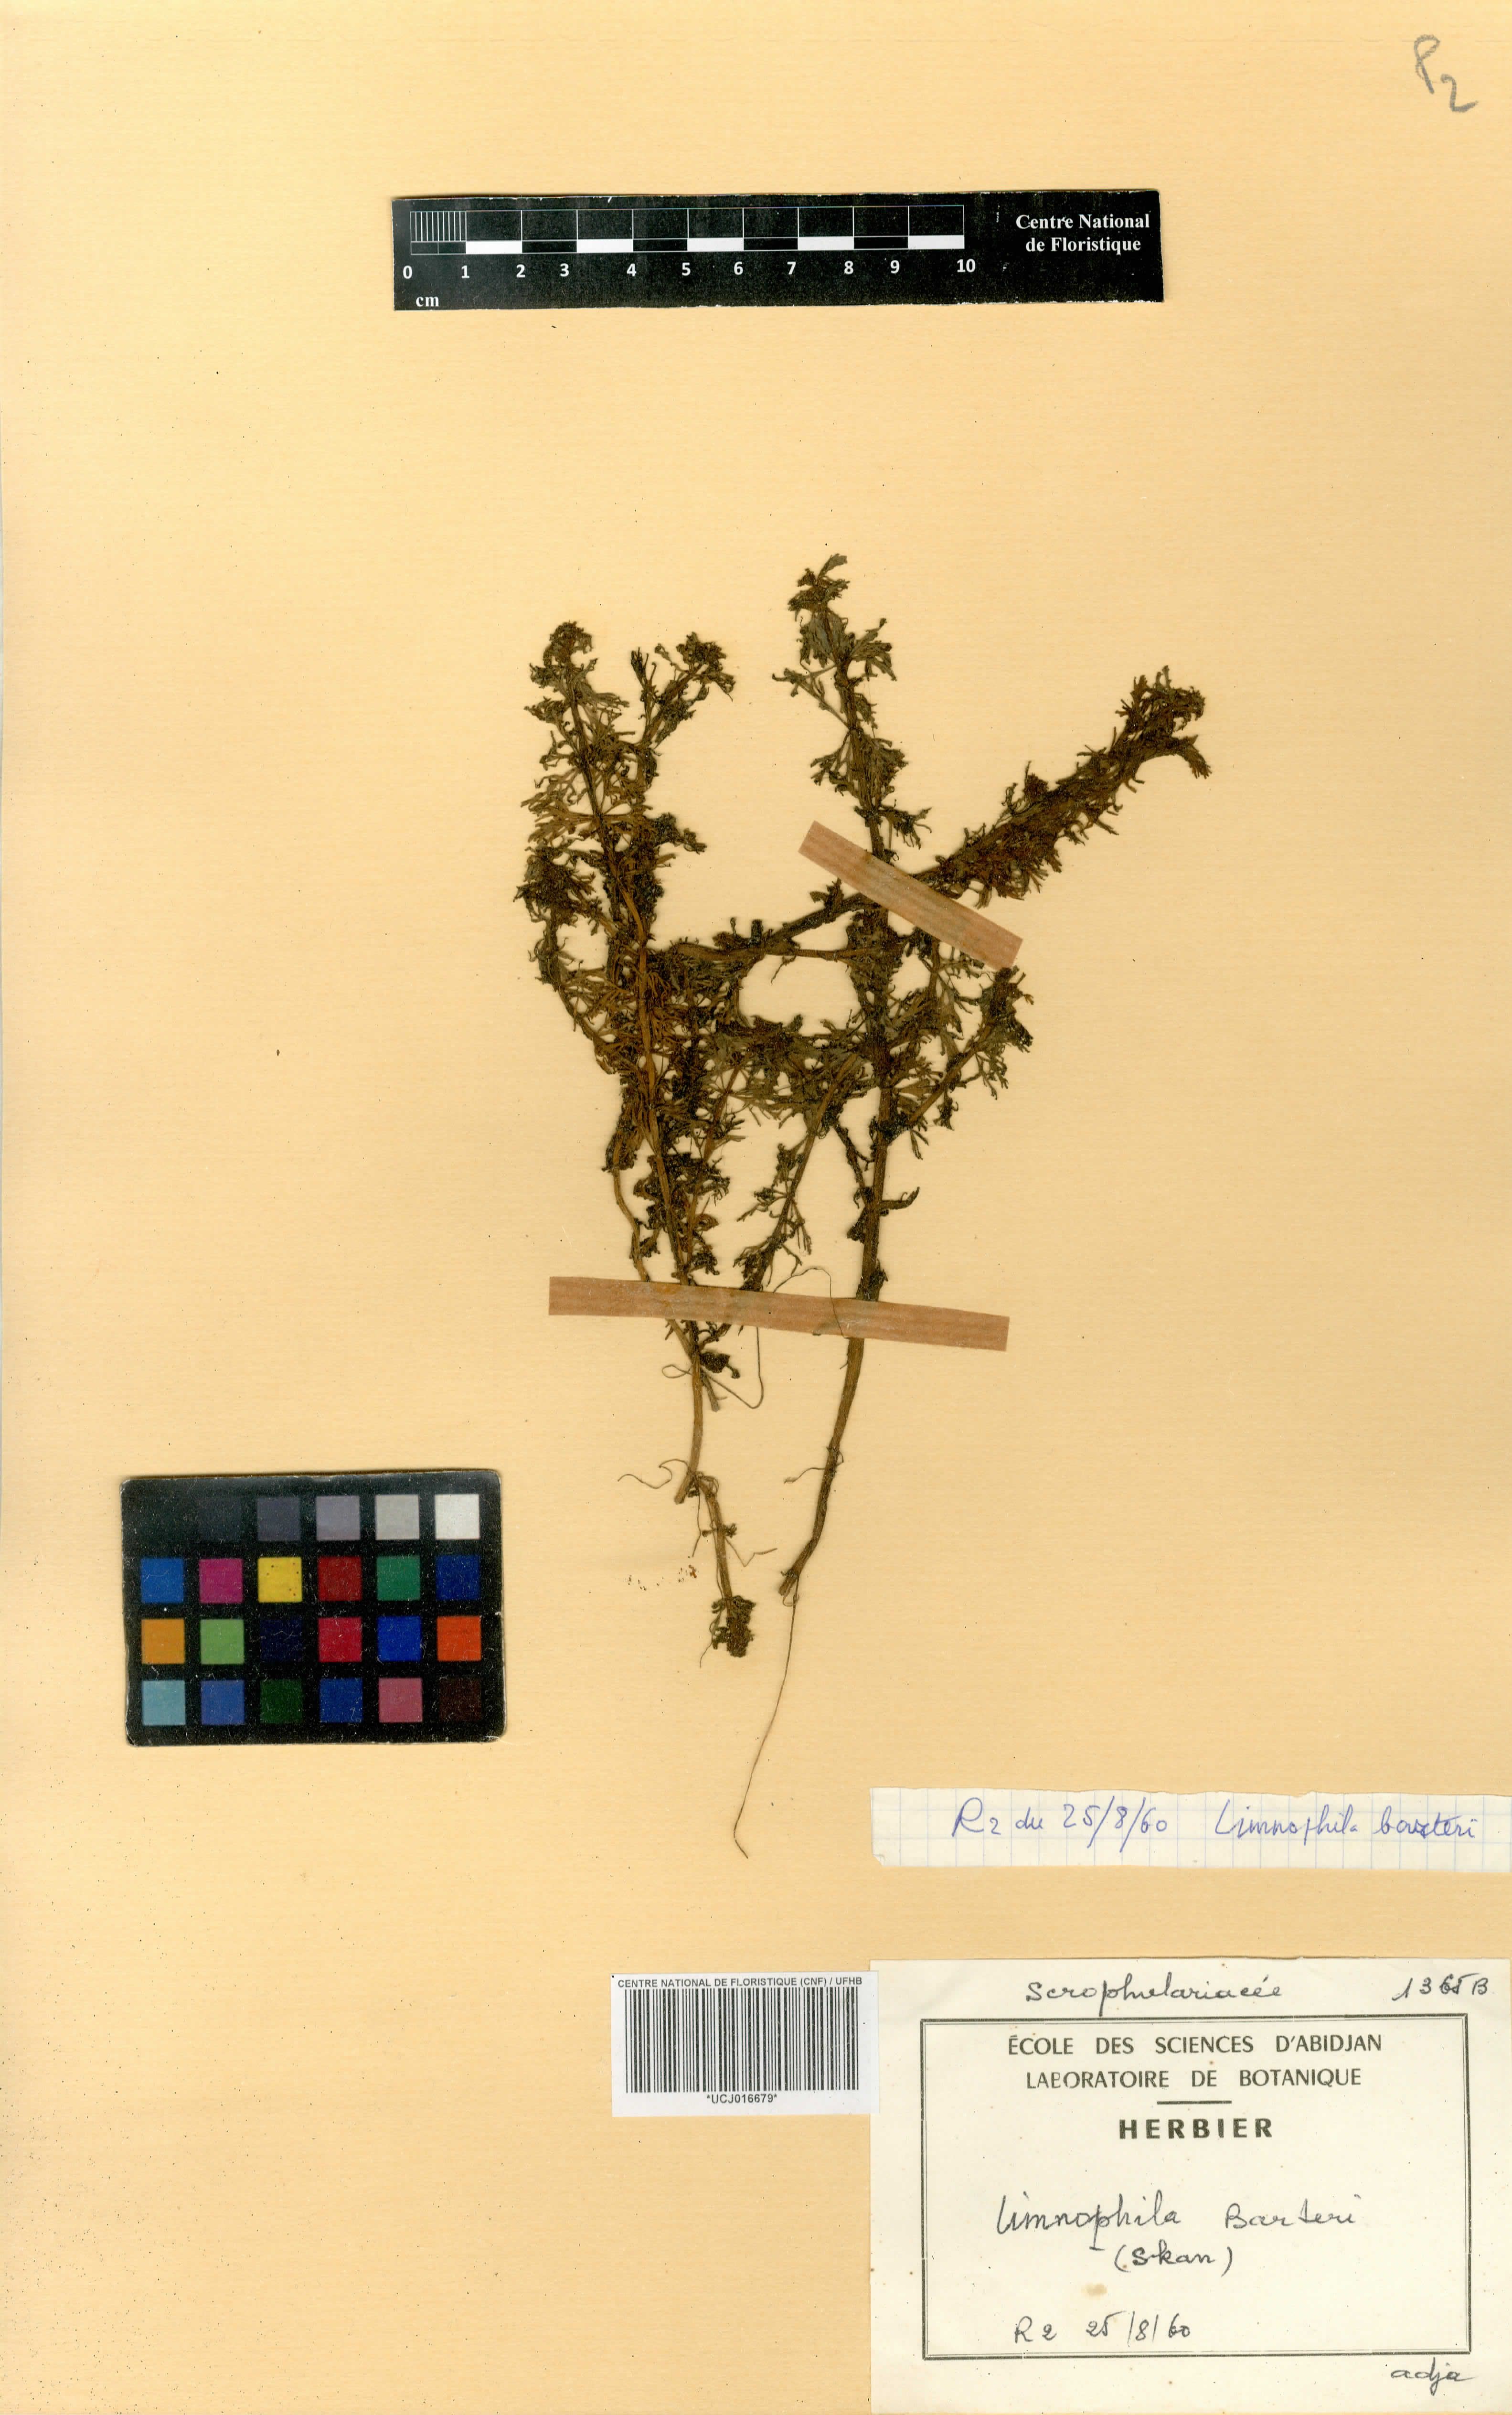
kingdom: Plantae
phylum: Tracheophyta
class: Magnoliopsida
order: Lamiales
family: Plantaginaceae
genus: Limnophila
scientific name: Limnophila barteri
